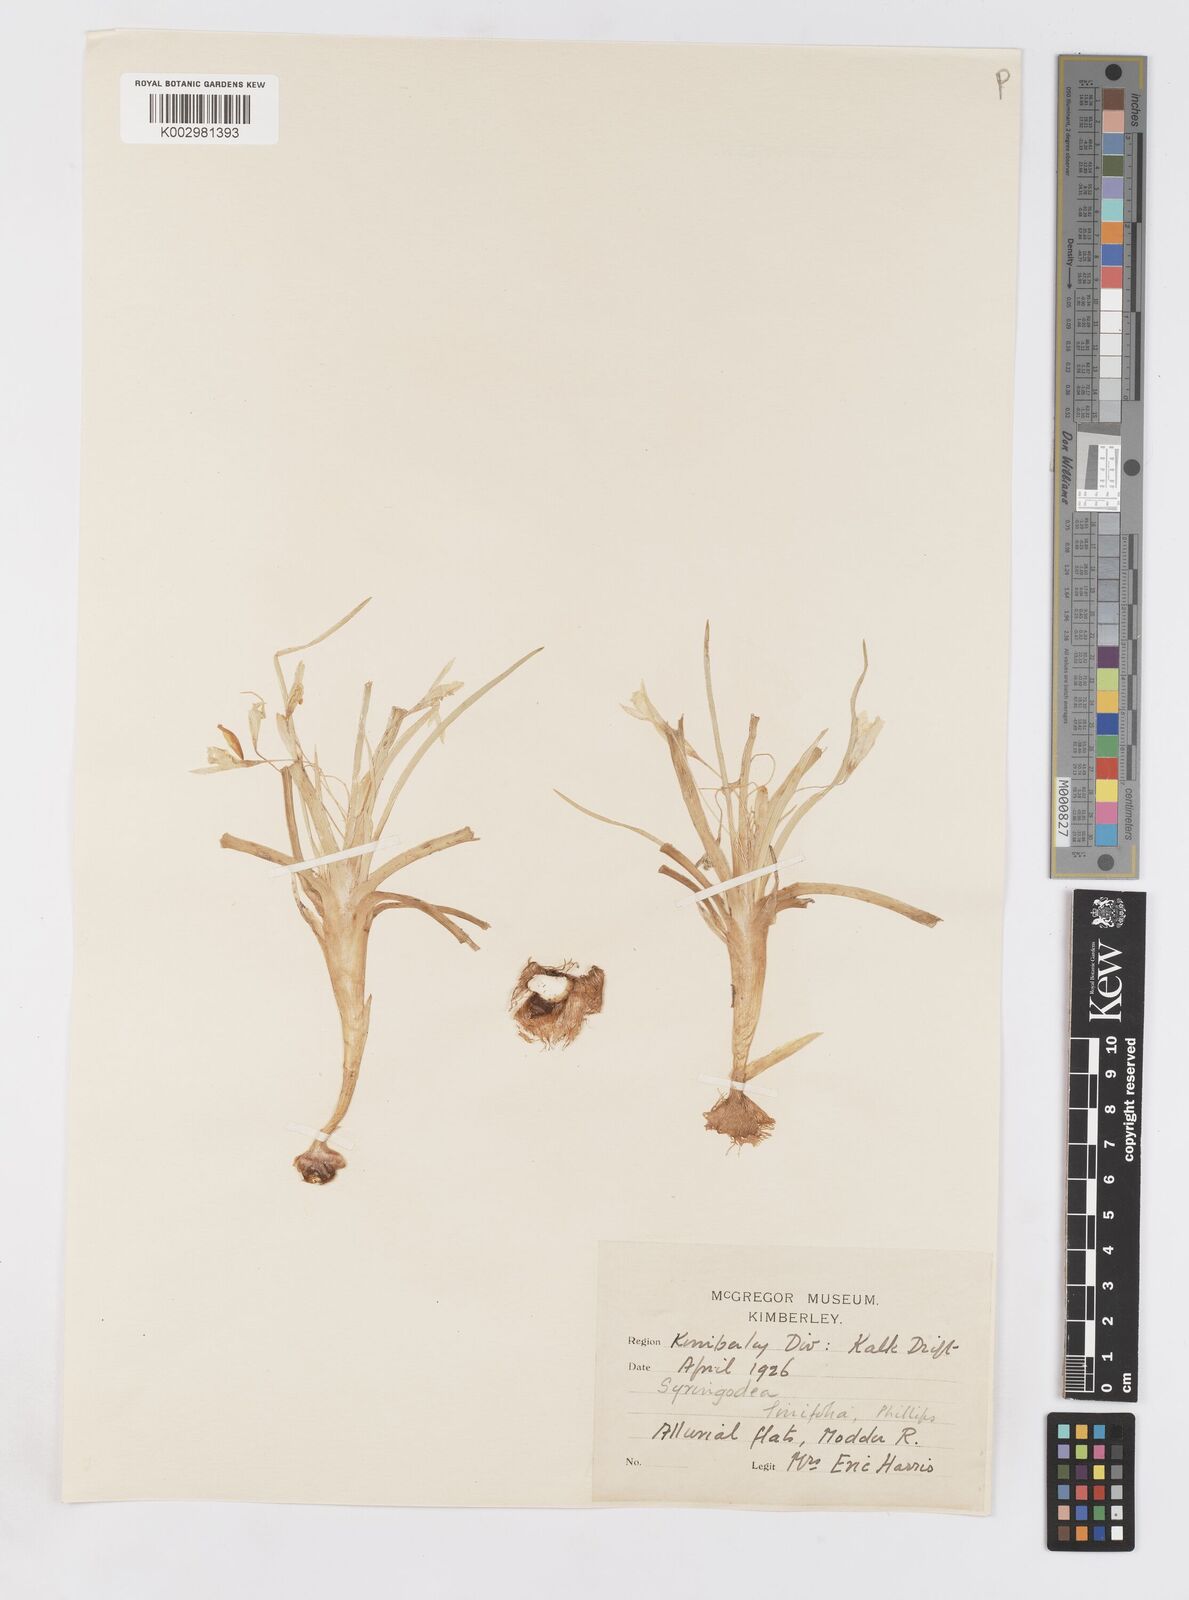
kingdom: Plantae
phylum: Tracheophyta
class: Liliopsida
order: Asparagales
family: Iridaceae
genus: Duthiastrum
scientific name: Duthiastrum linifolium
